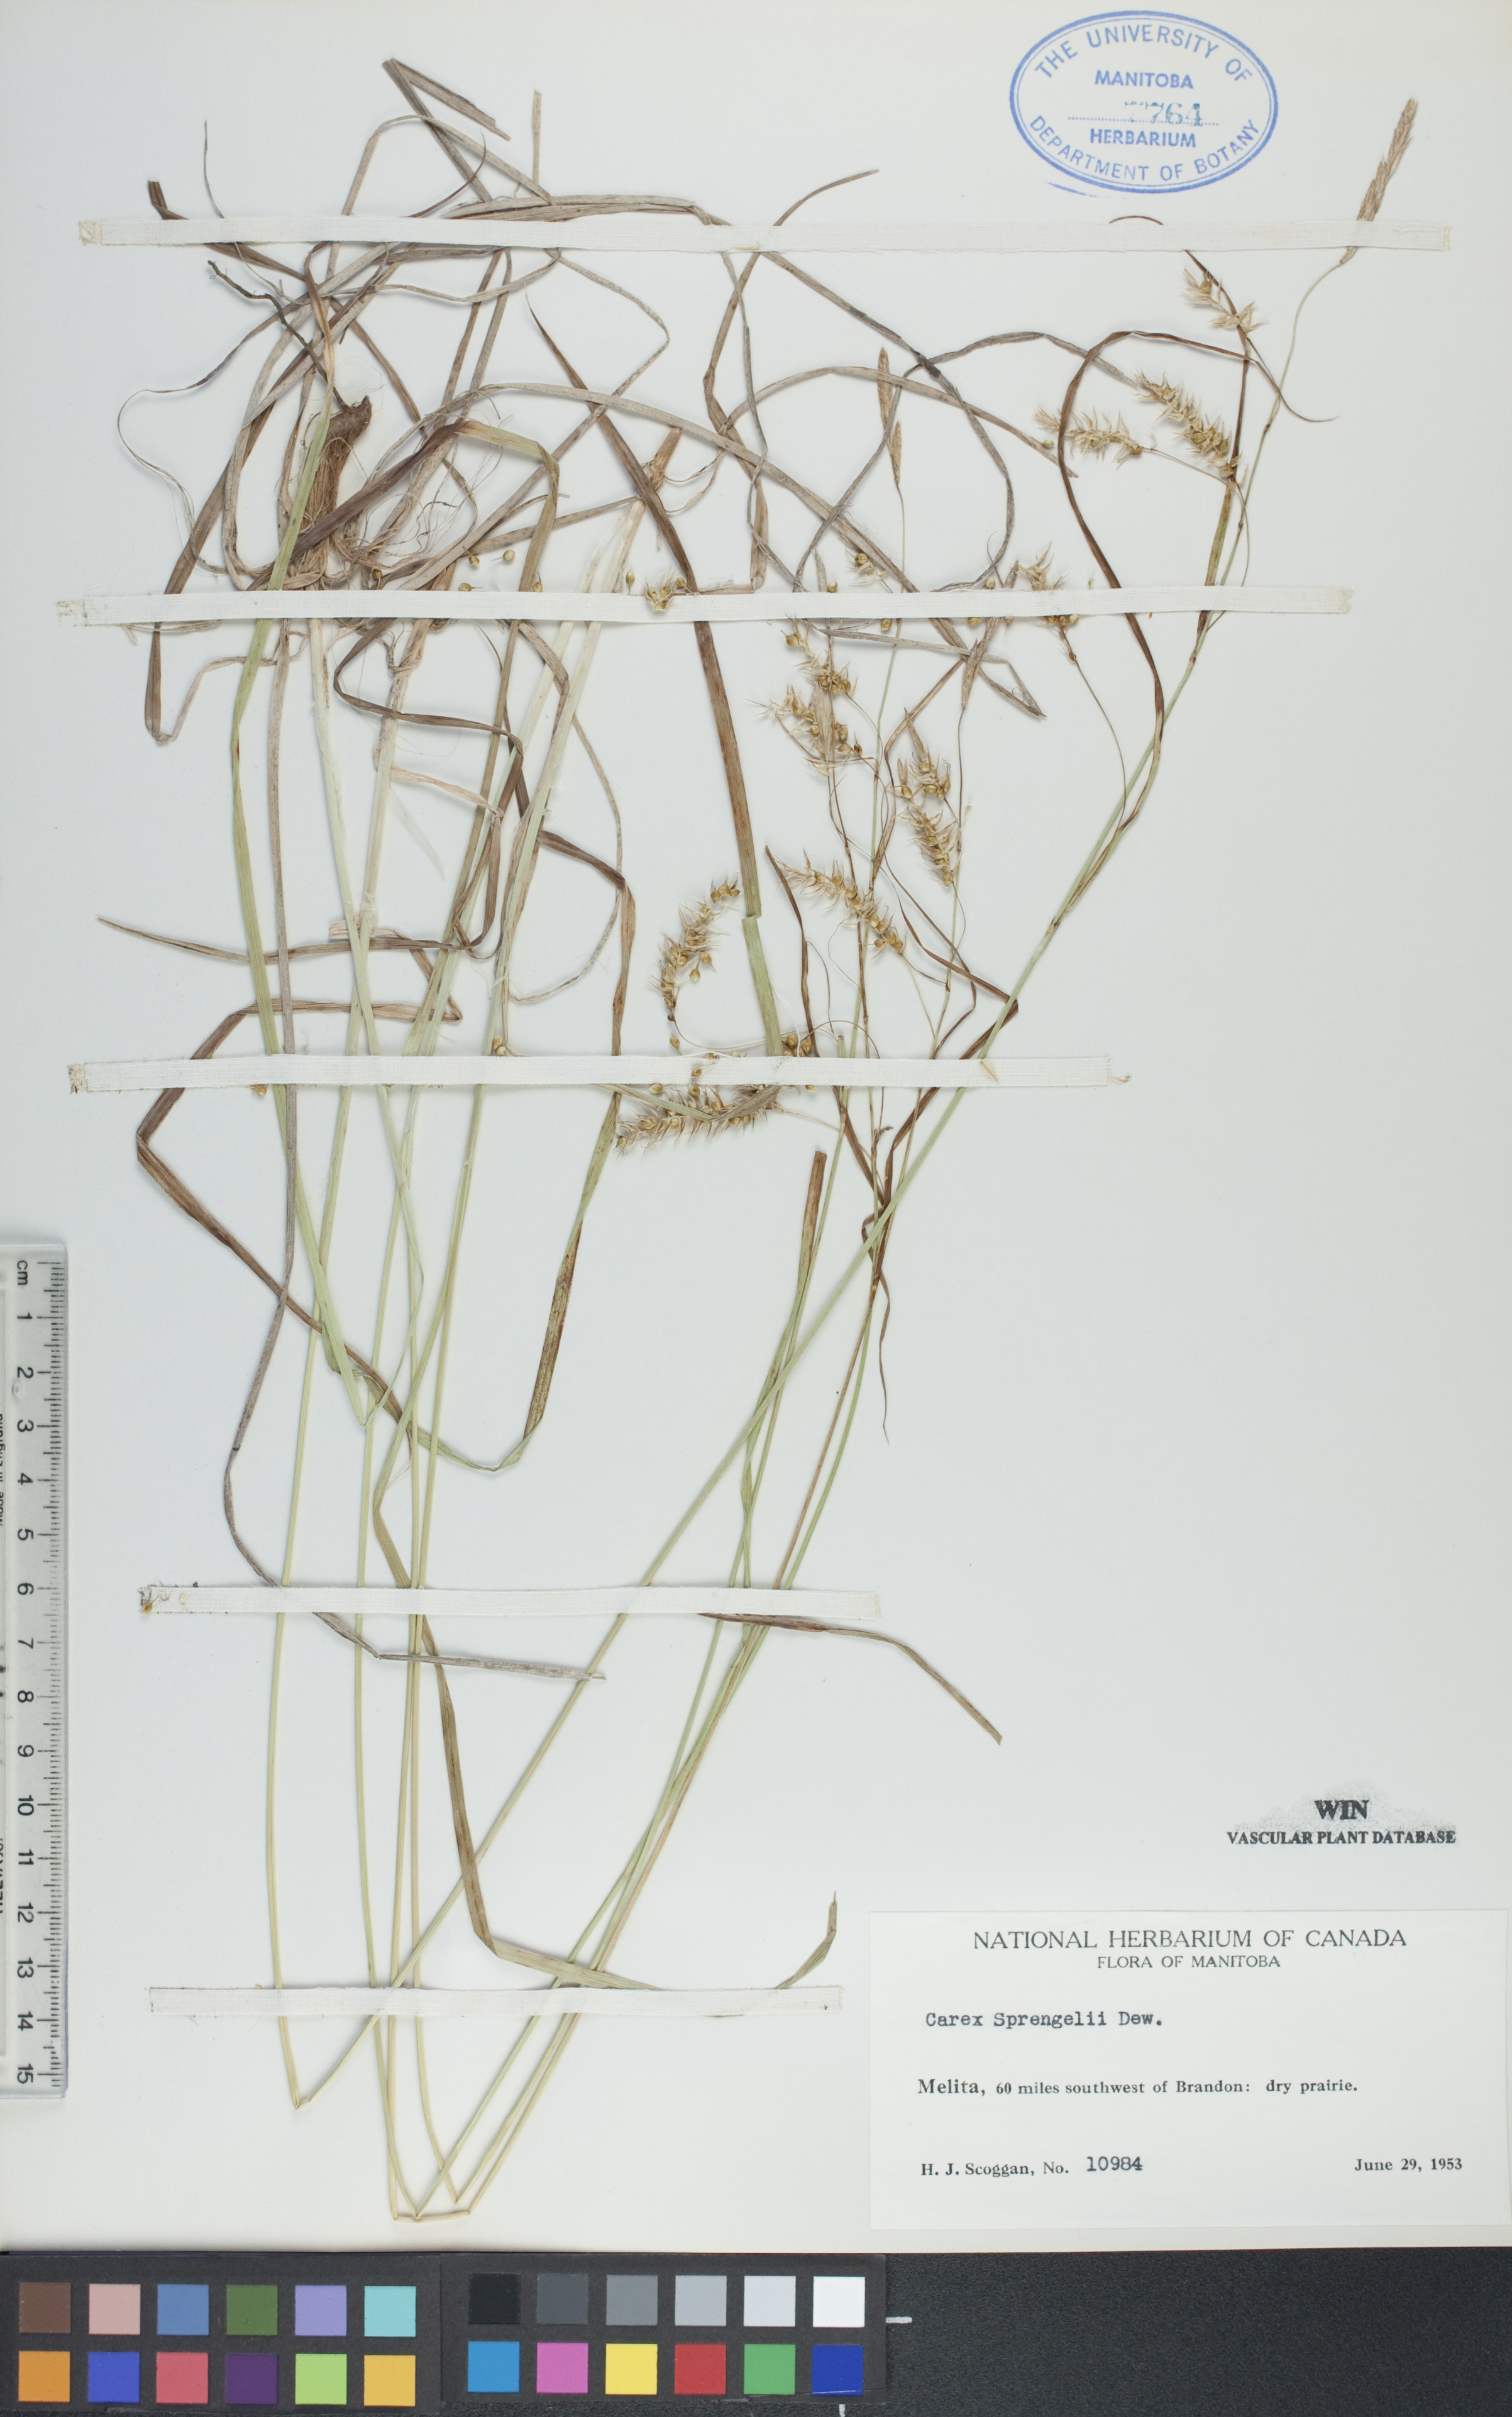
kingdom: Plantae
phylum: Tracheophyta
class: Liliopsida
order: Poales
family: Cyperaceae
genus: Carex
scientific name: Carex sprengelii
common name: Long-beaked sedge
